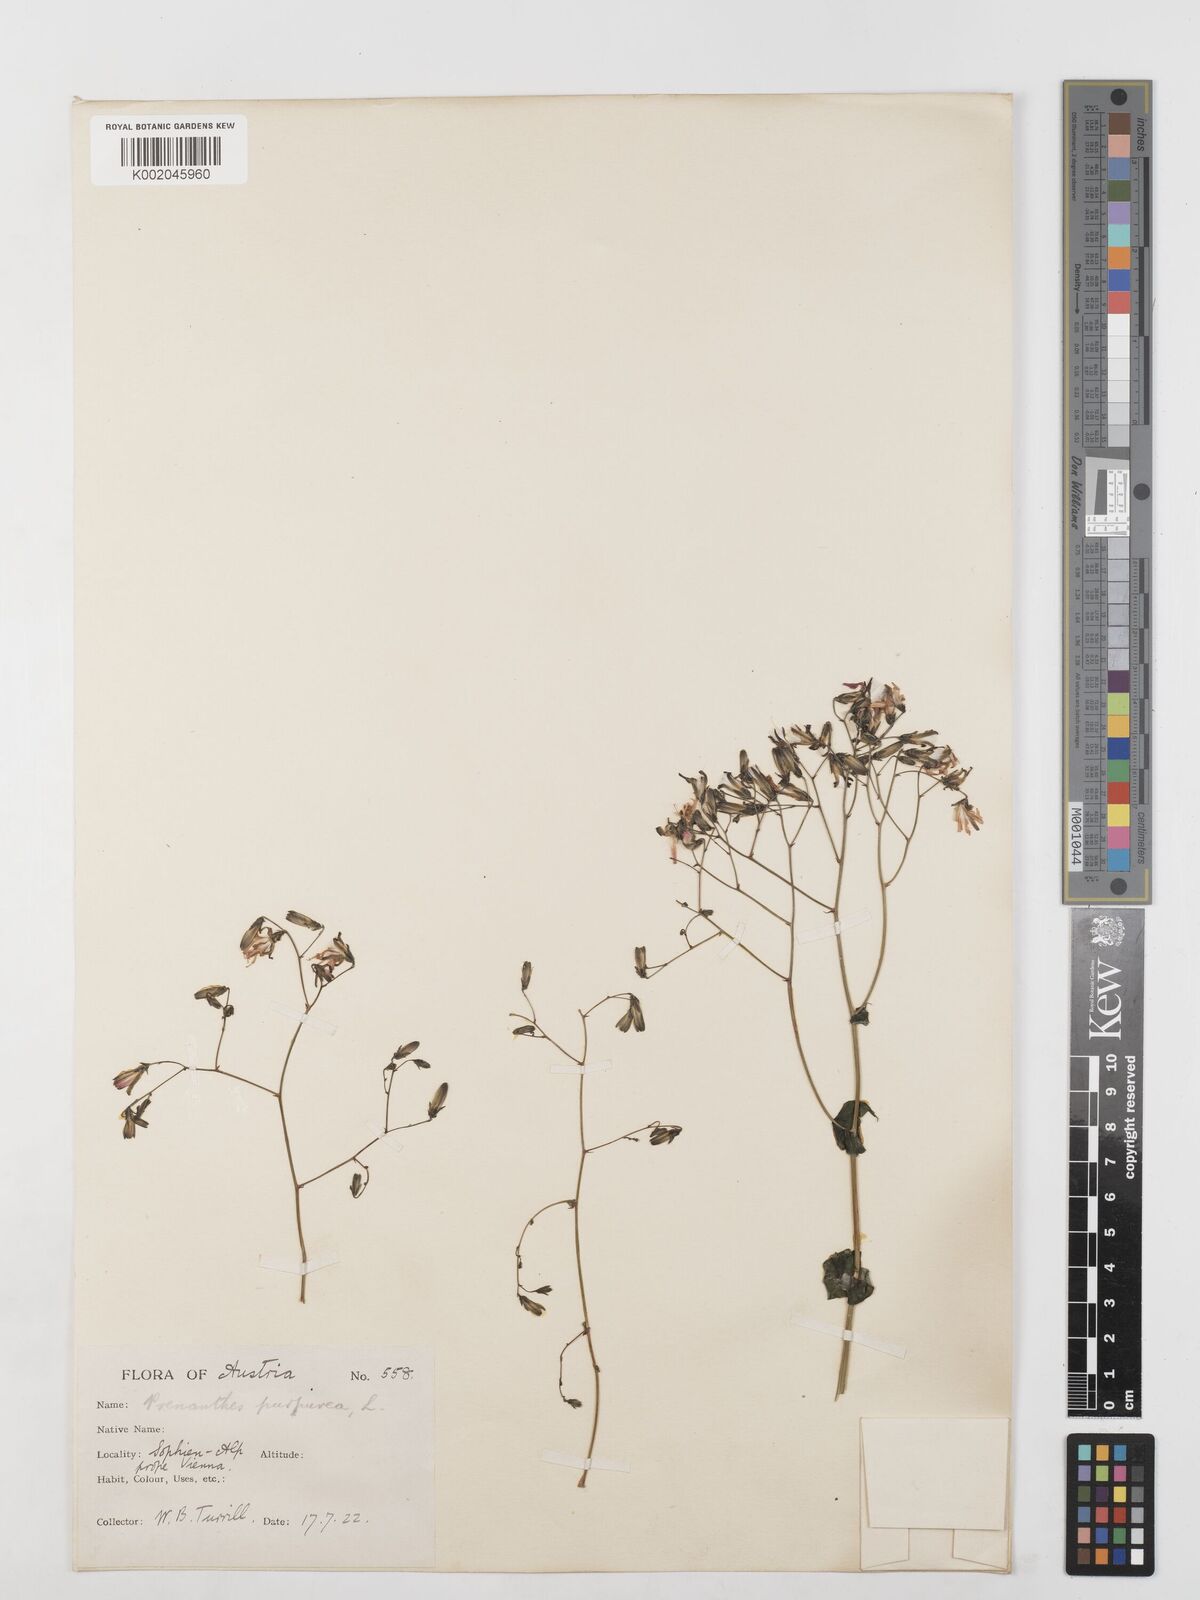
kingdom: Plantae
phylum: Tracheophyta
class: Magnoliopsida
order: Asterales
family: Asteraceae
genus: Prenanthes
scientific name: Prenanthes purpurea
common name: Purple lettuce
